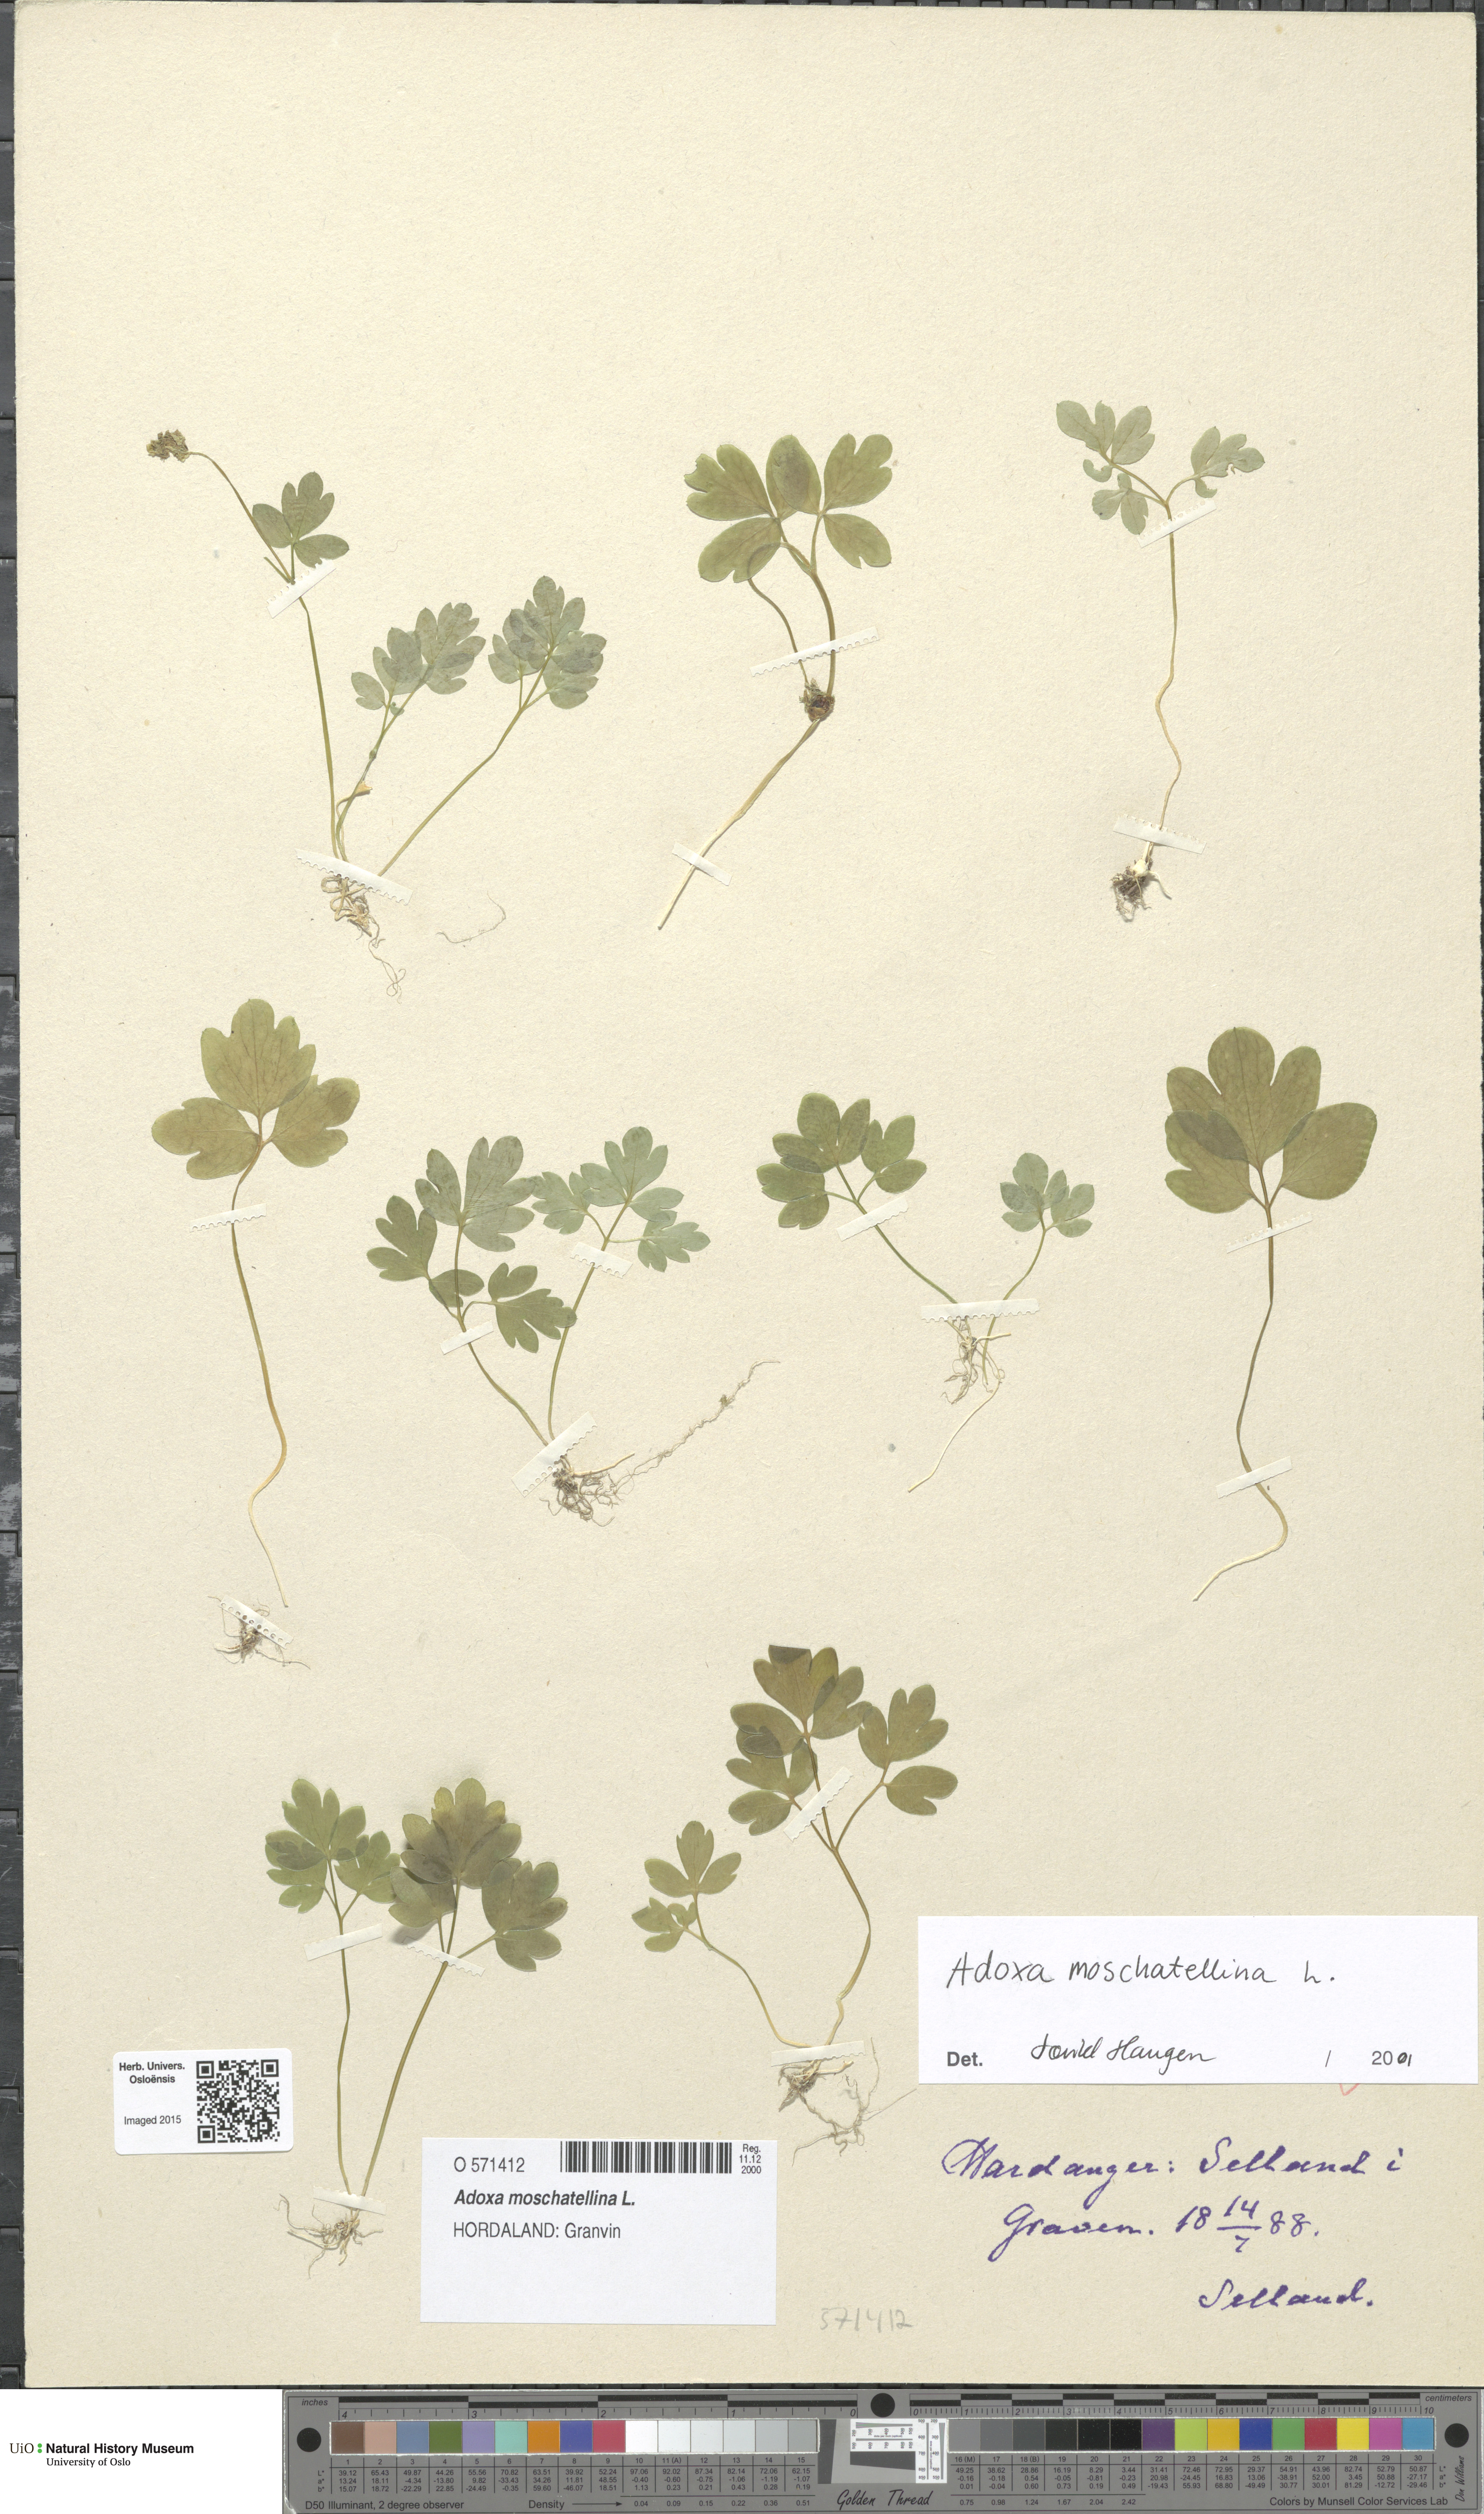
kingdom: Plantae
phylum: Tracheophyta
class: Magnoliopsida
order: Dipsacales
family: Viburnaceae
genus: Adoxa
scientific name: Adoxa moschatellina
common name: Moschatel
